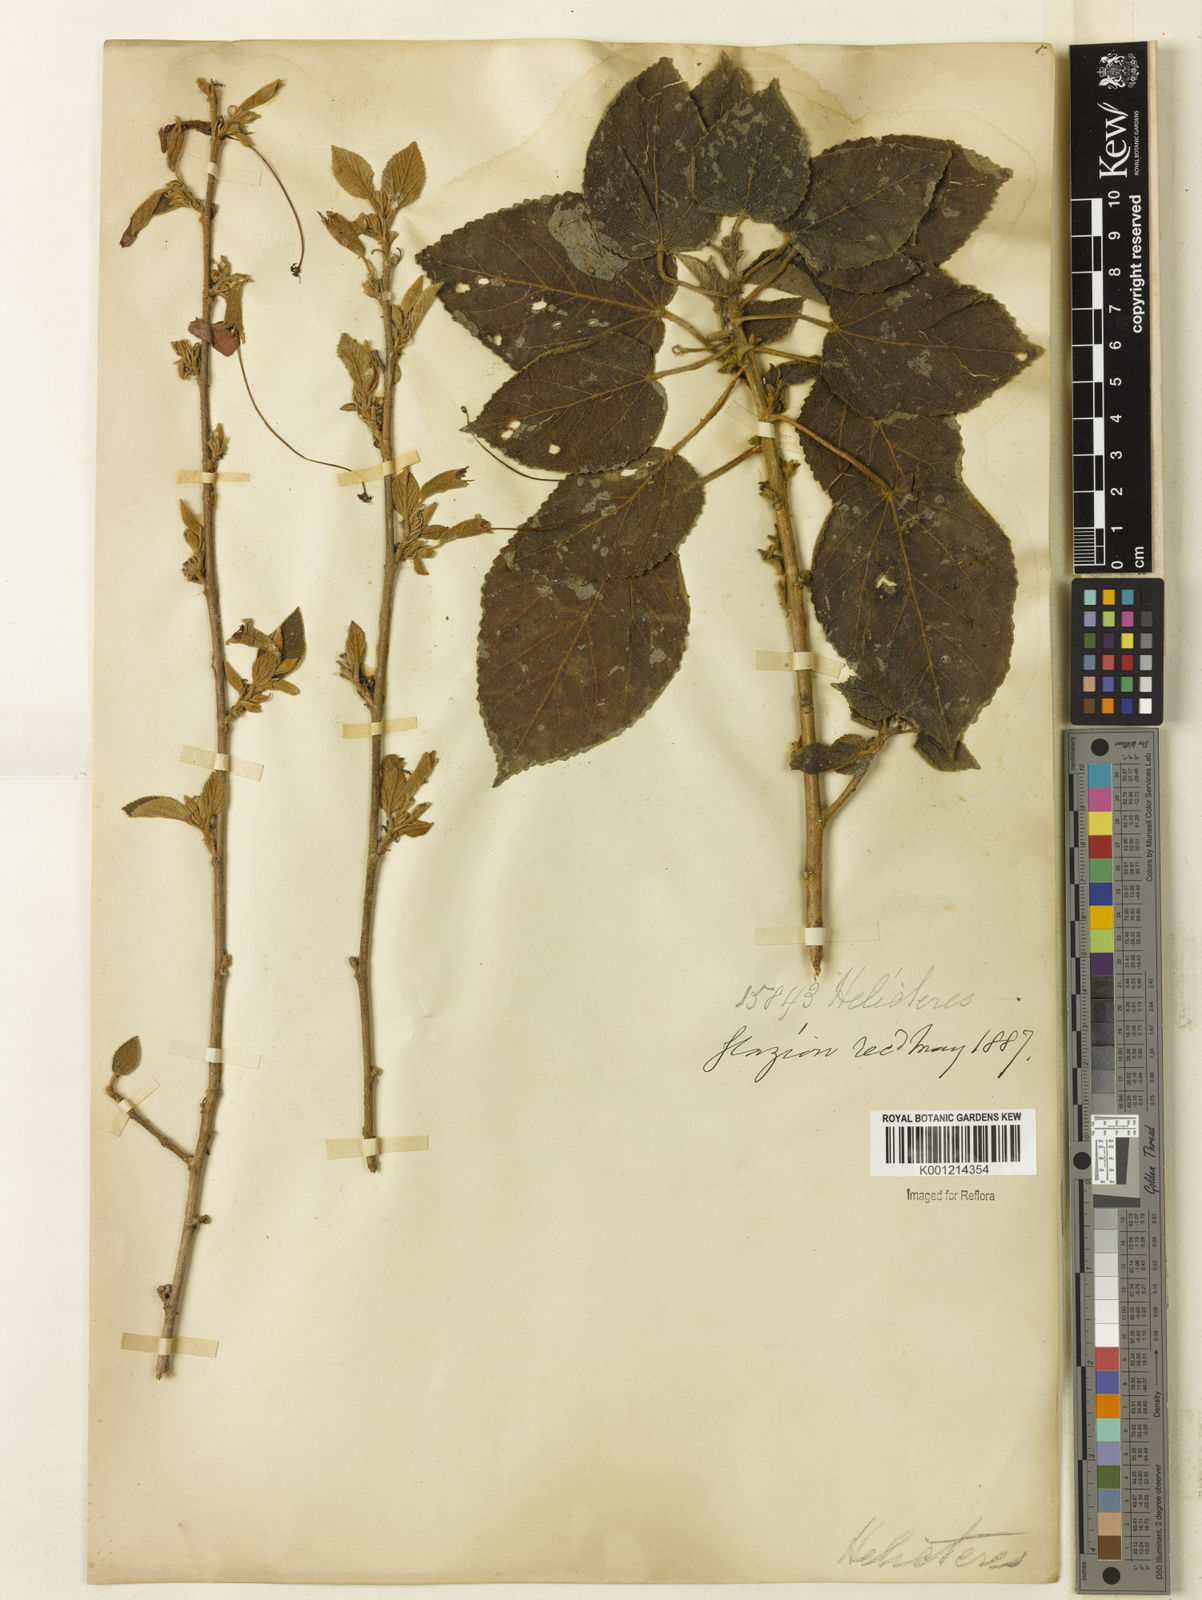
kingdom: Plantae
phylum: Tracheophyta
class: Magnoliopsida
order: Malvales
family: Malvaceae
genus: Helicteres
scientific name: Helicteres
